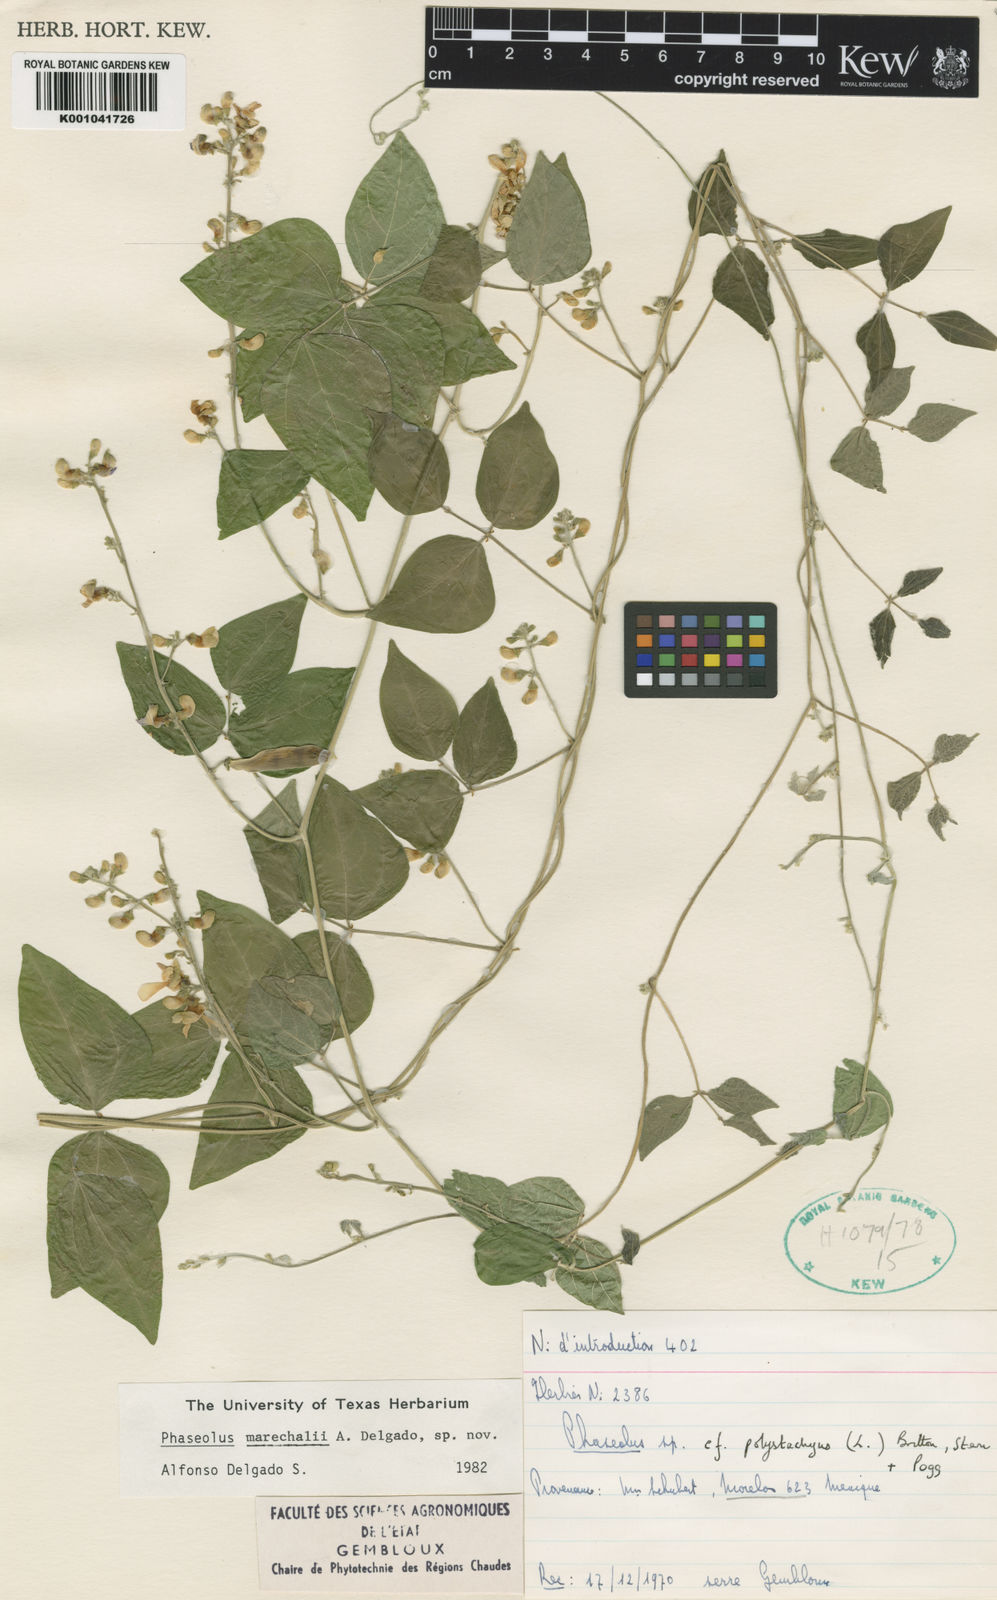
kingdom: Plantae
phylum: Tracheophyta
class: Magnoliopsida
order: Fabales
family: Fabaceae
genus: Phaseolus
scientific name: Phaseolus marechalii
